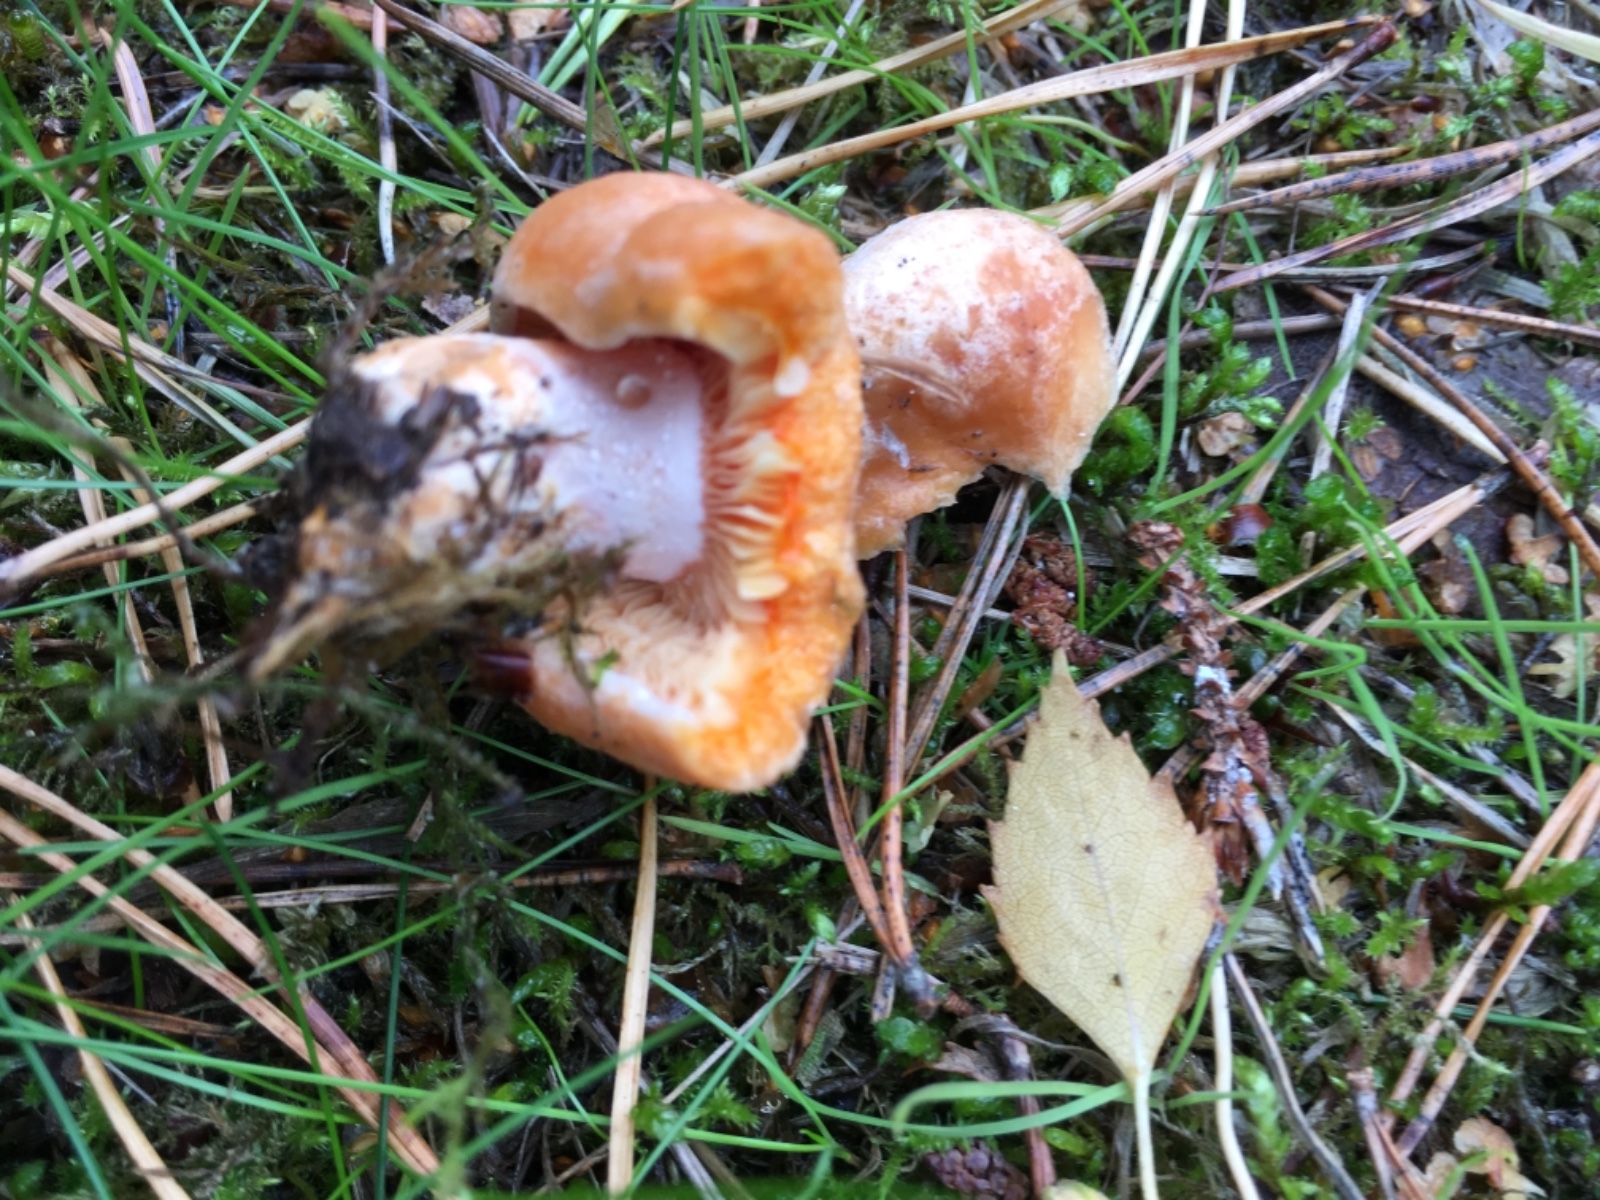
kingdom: Fungi
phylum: Basidiomycota
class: Agaricomycetes
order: Russulales
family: Russulaceae
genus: Lactarius
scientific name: Lactarius deliciosus
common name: velsmagende mælkehat
